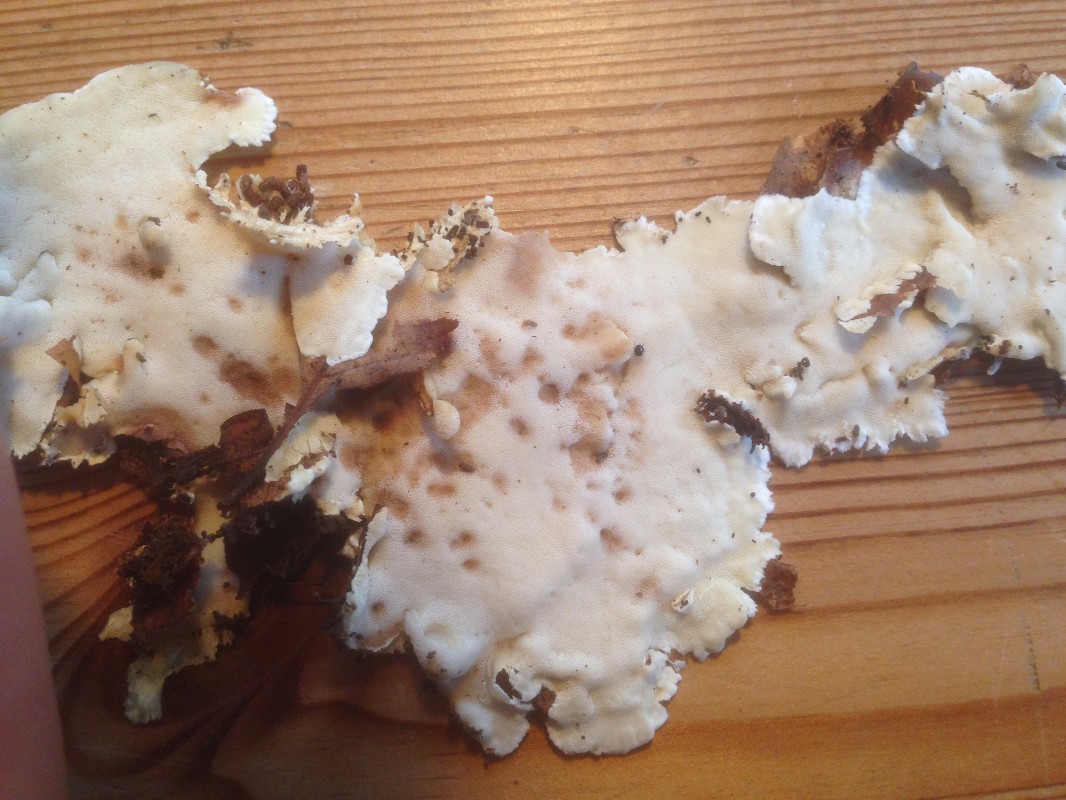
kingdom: Fungi
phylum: Basidiomycota
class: Agaricomycetes
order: Polyporales
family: Steccherinaceae
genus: Antrodiella
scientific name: Antrodiella faginea
